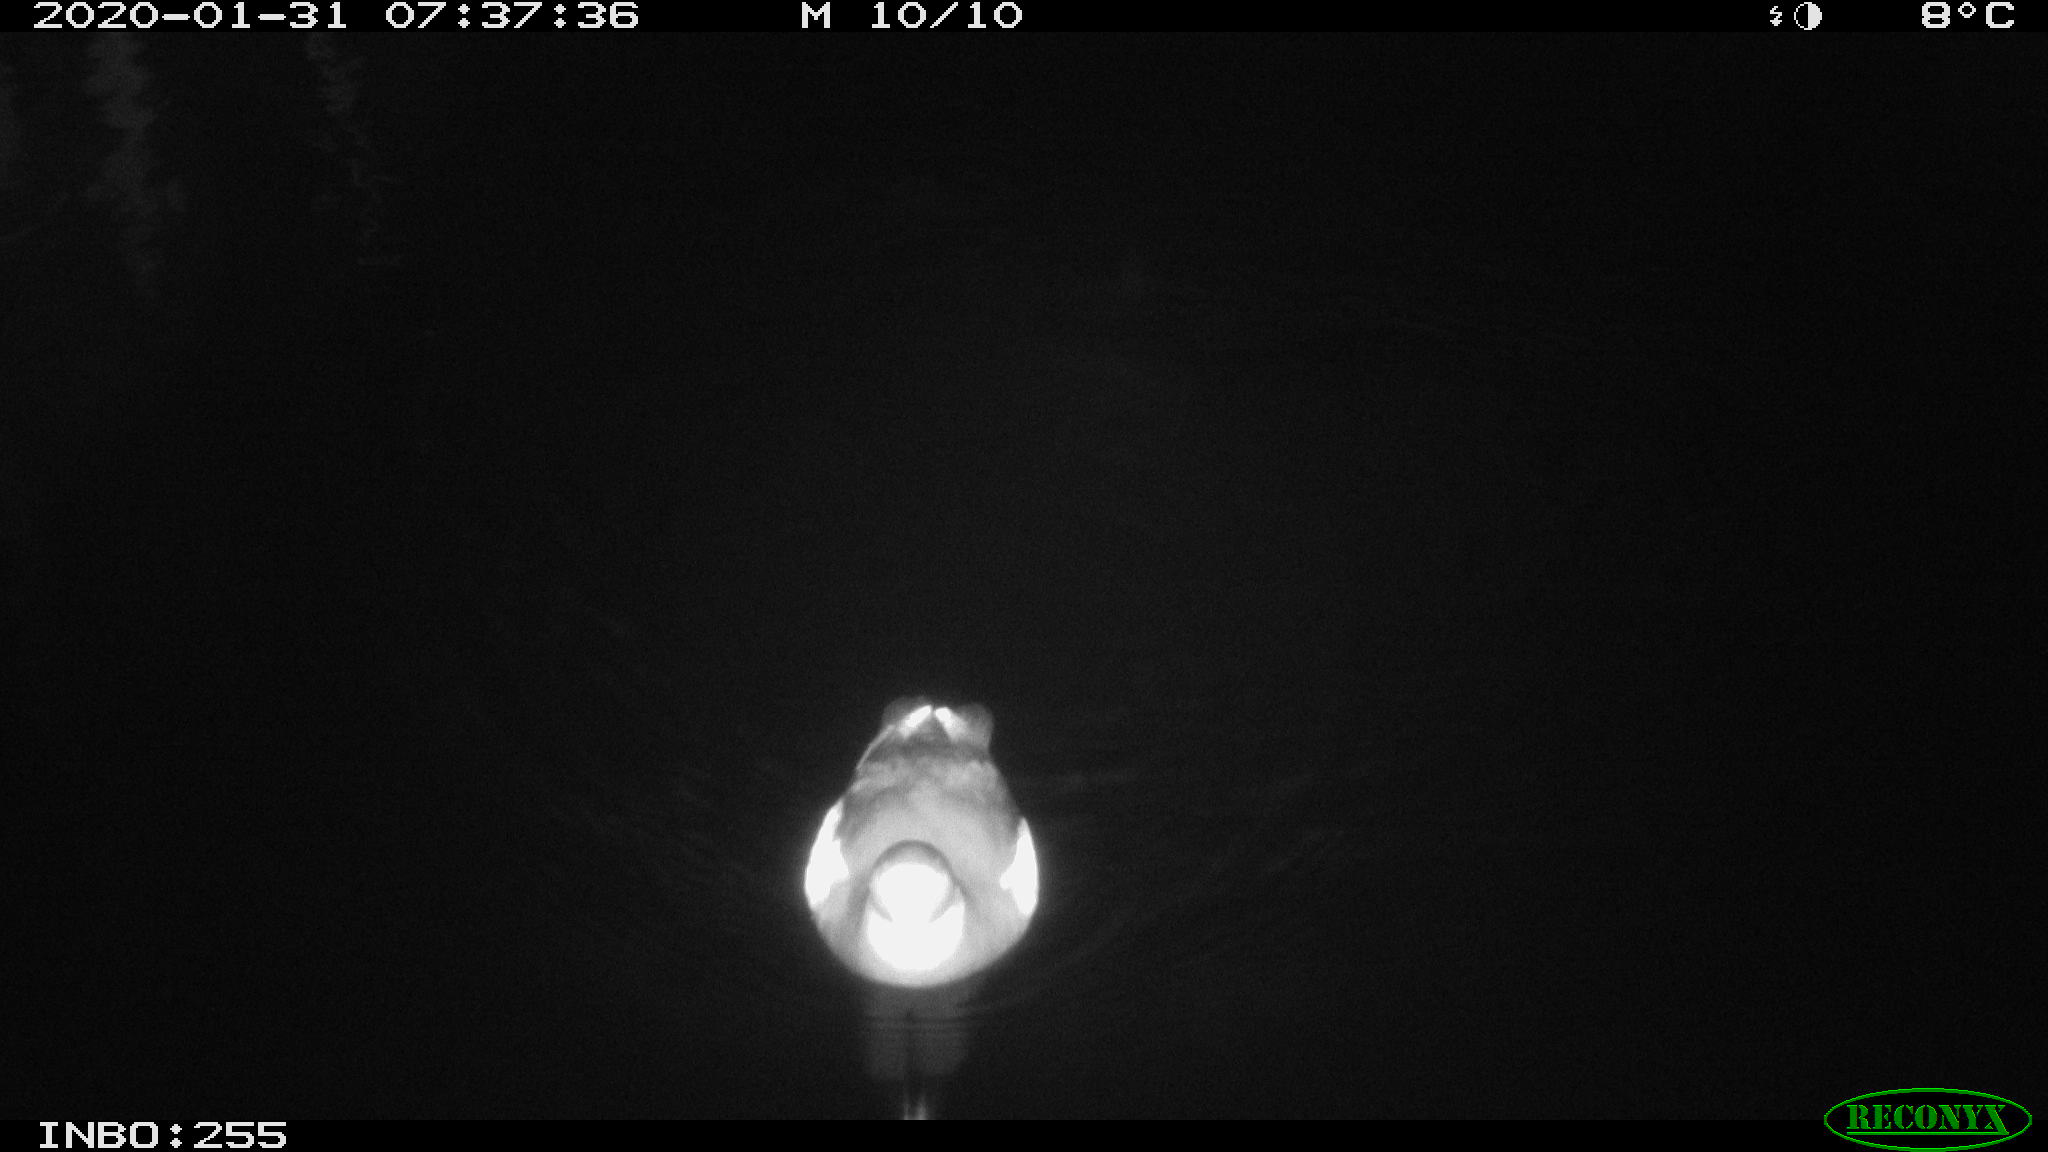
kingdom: Animalia
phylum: Chordata
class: Aves
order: Gruiformes
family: Rallidae
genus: Gallinula
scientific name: Gallinula chloropus
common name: Common moorhen
